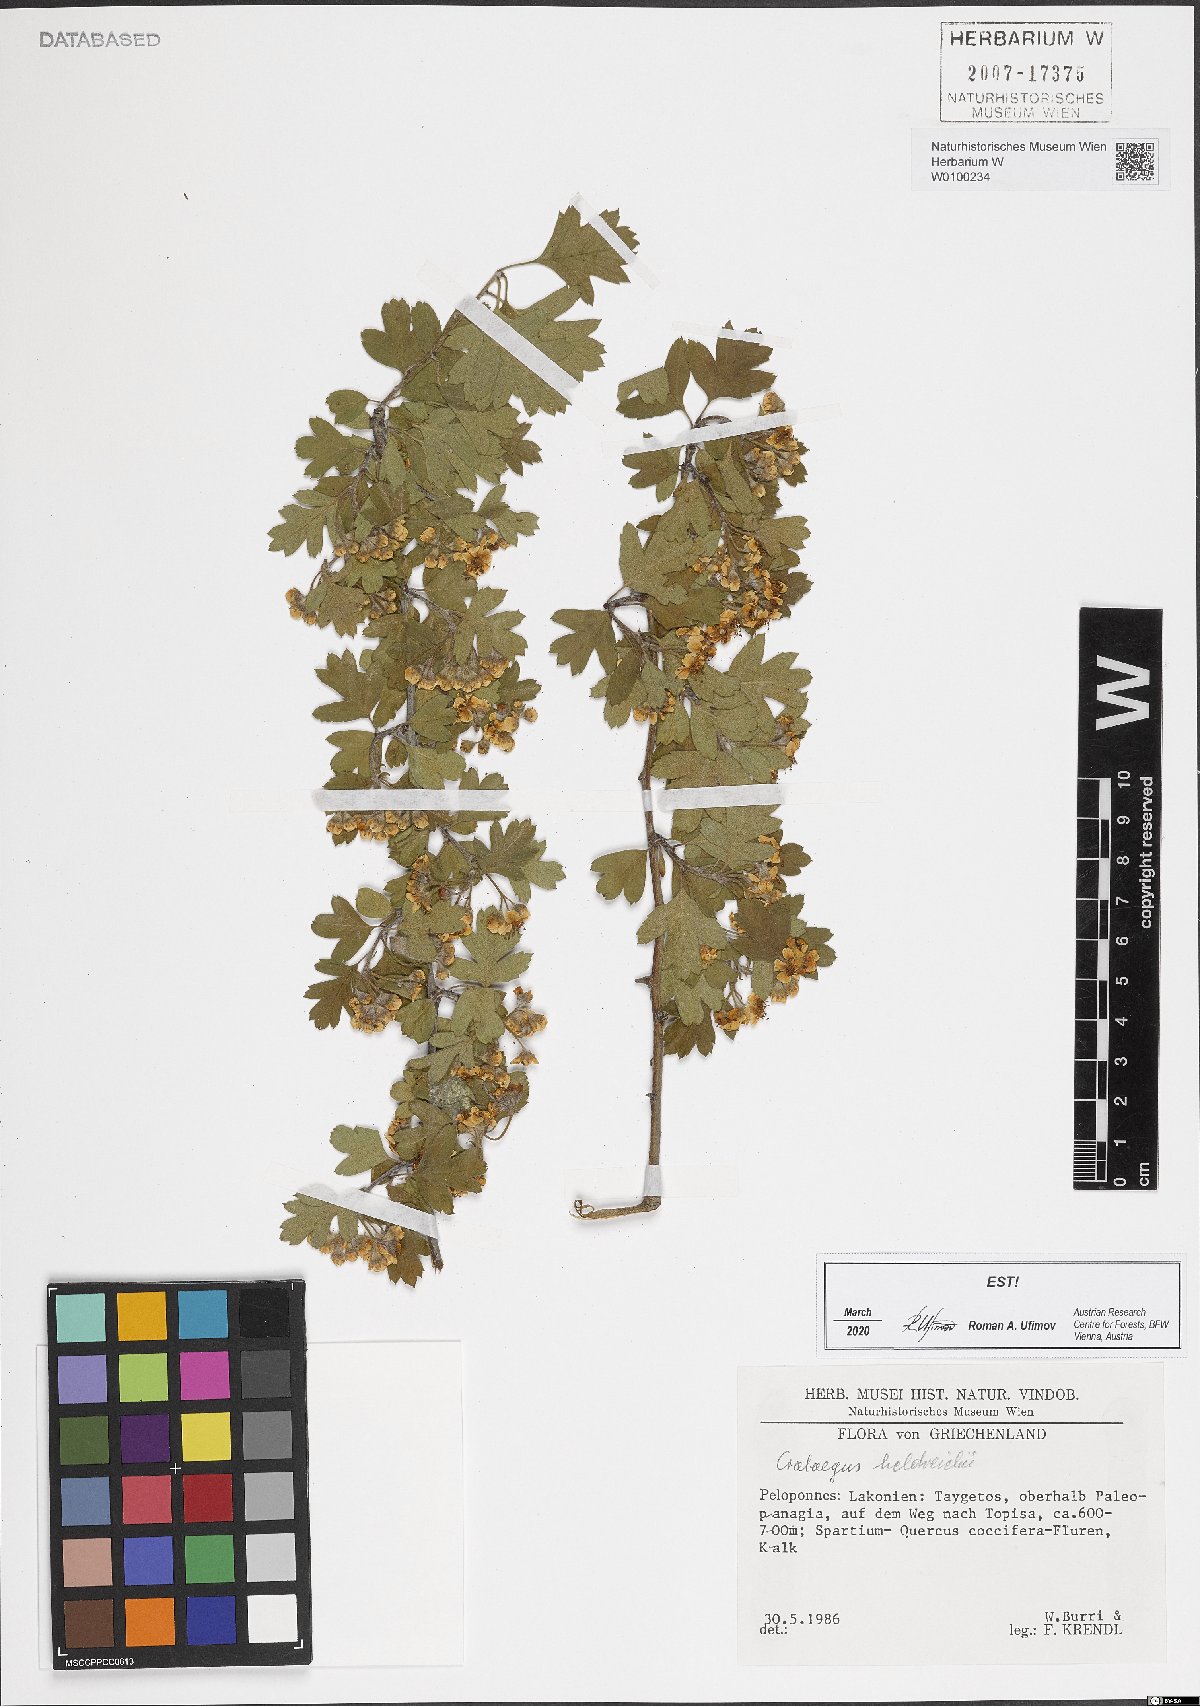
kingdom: Plantae
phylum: Tracheophyta
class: Magnoliopsida
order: Rosales
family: Rosaceae
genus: Crataegus
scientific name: Crataegus heldreichii
